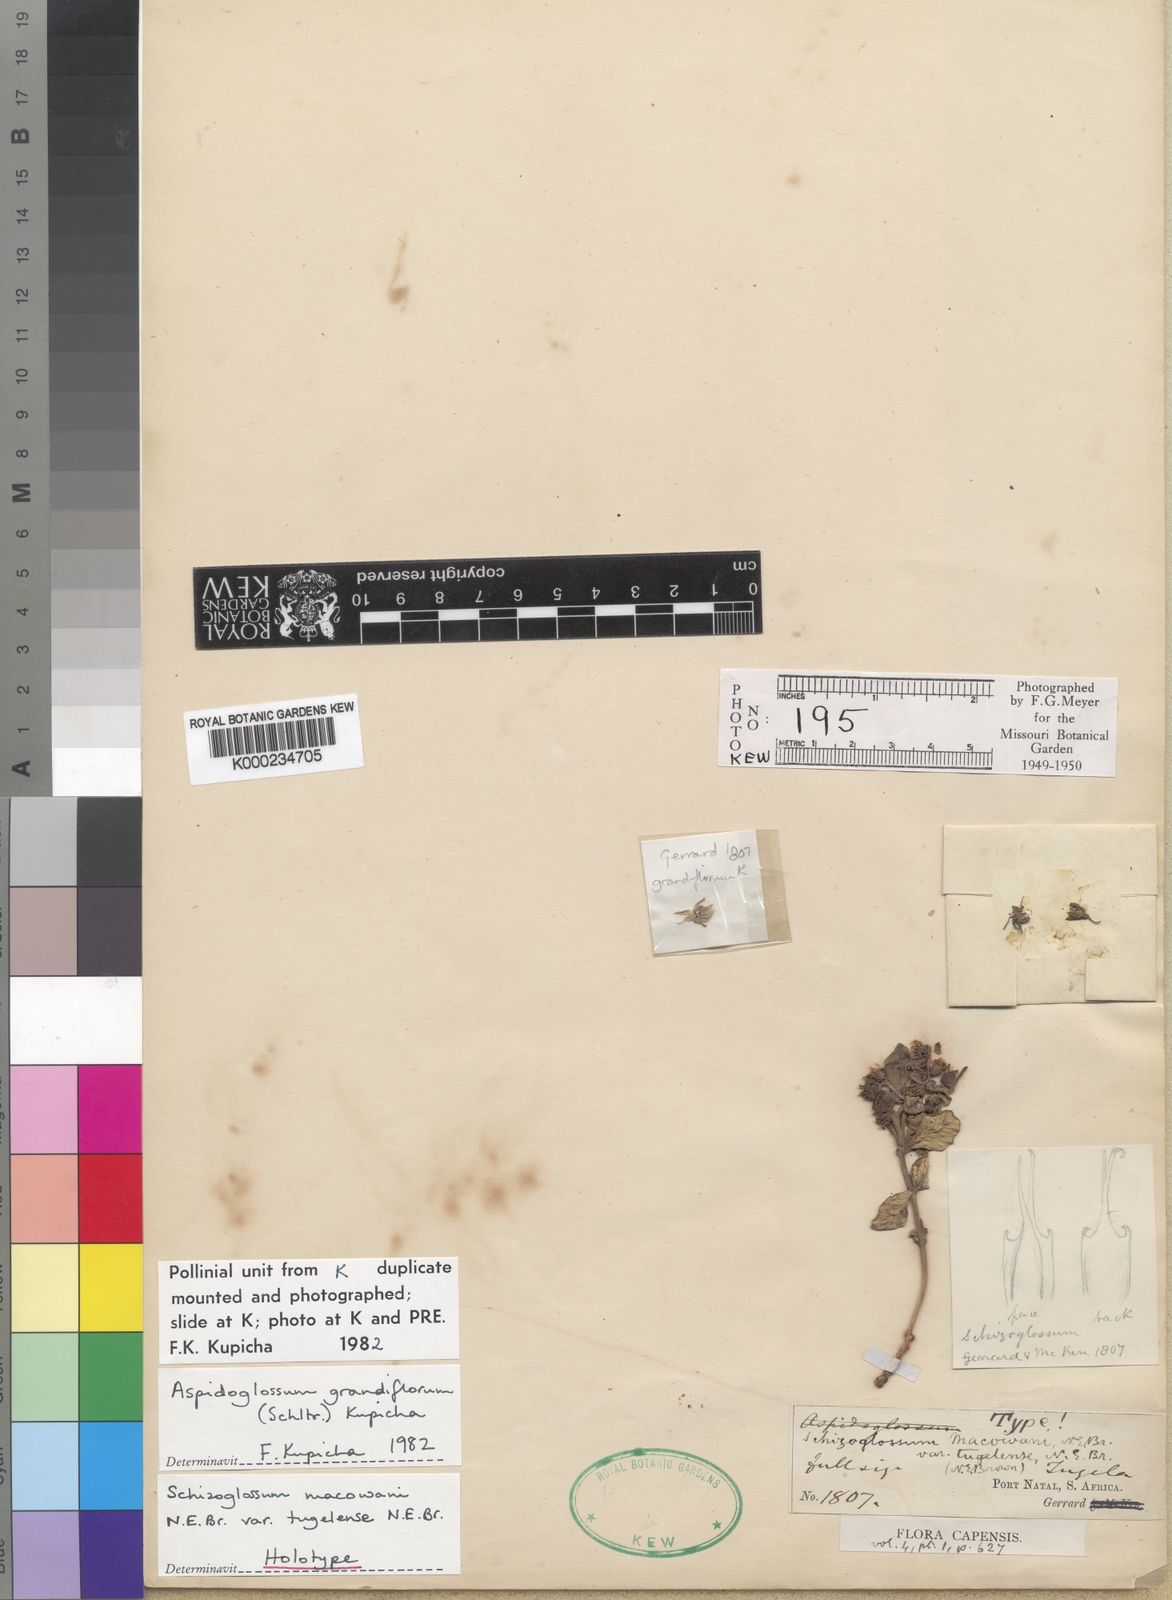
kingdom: Plantae
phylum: Tracheophyta
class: Magnoliopsida
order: Gentianales
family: Apocynaceae
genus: Aspidoglossum
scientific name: Aspidoglossum grandiflorum
